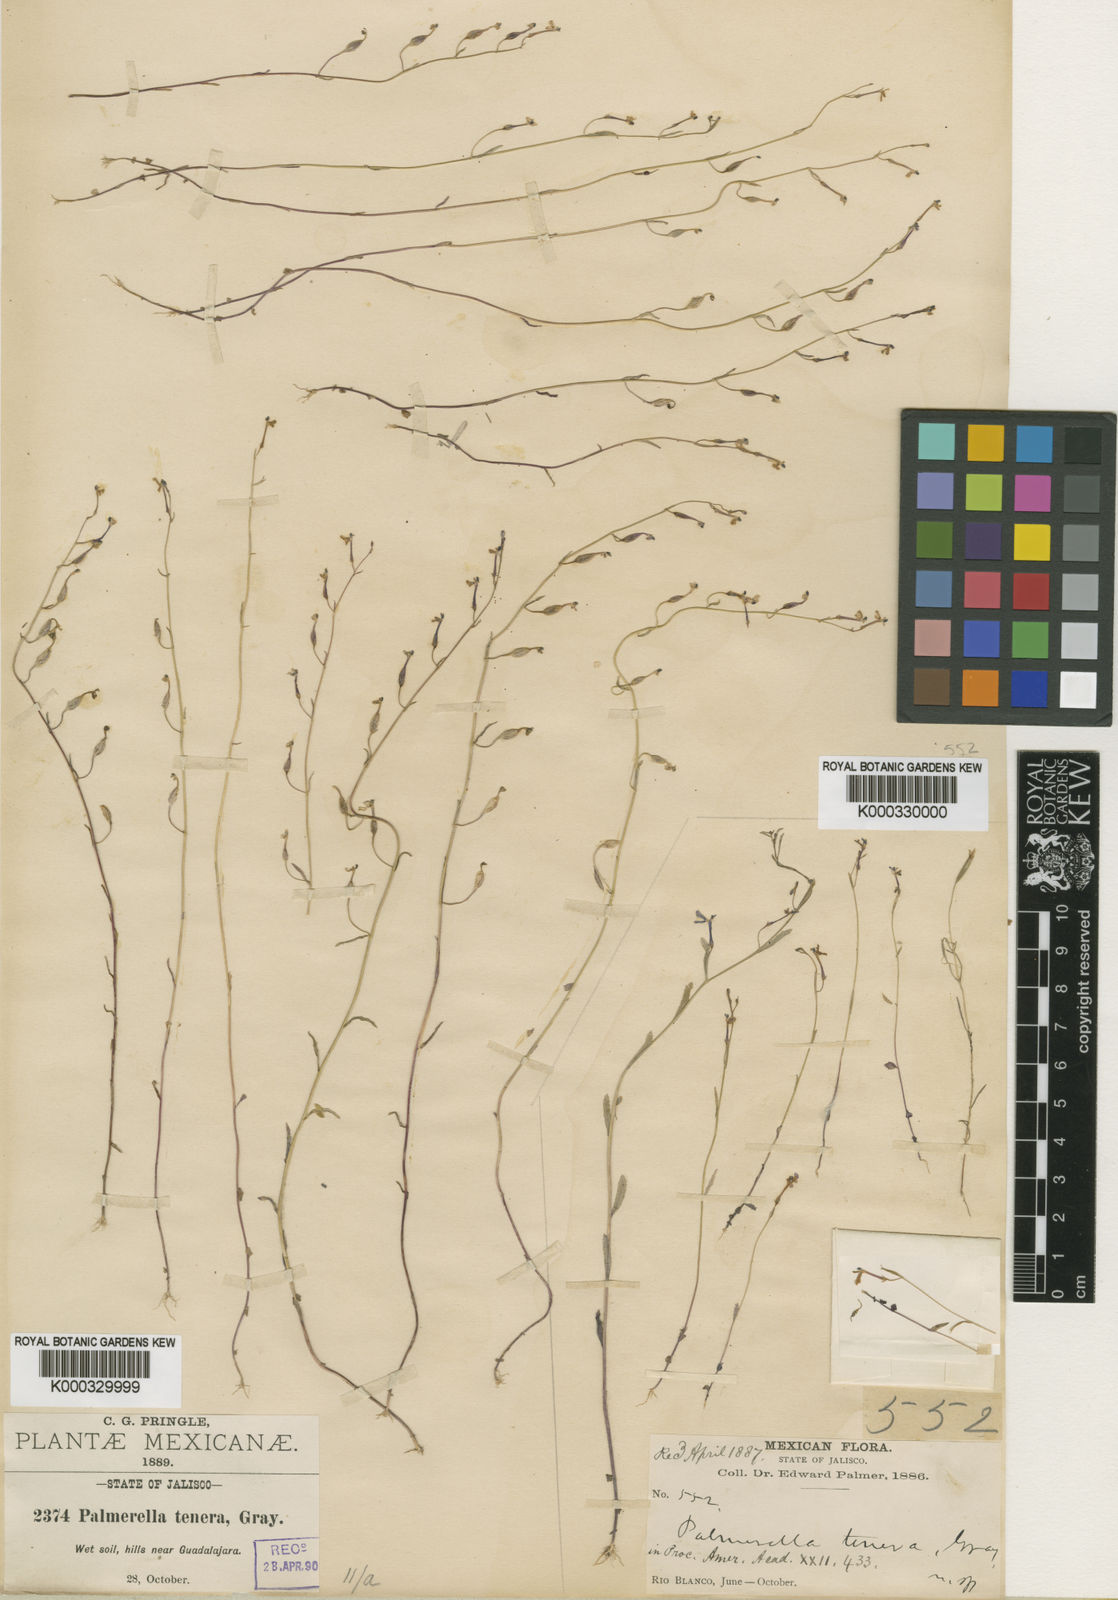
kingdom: Plantae
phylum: Tracheophyta
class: Magnoliopsida
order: Asterales
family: Campanulaceae
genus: Diastatea
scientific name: Diastatea tenera
